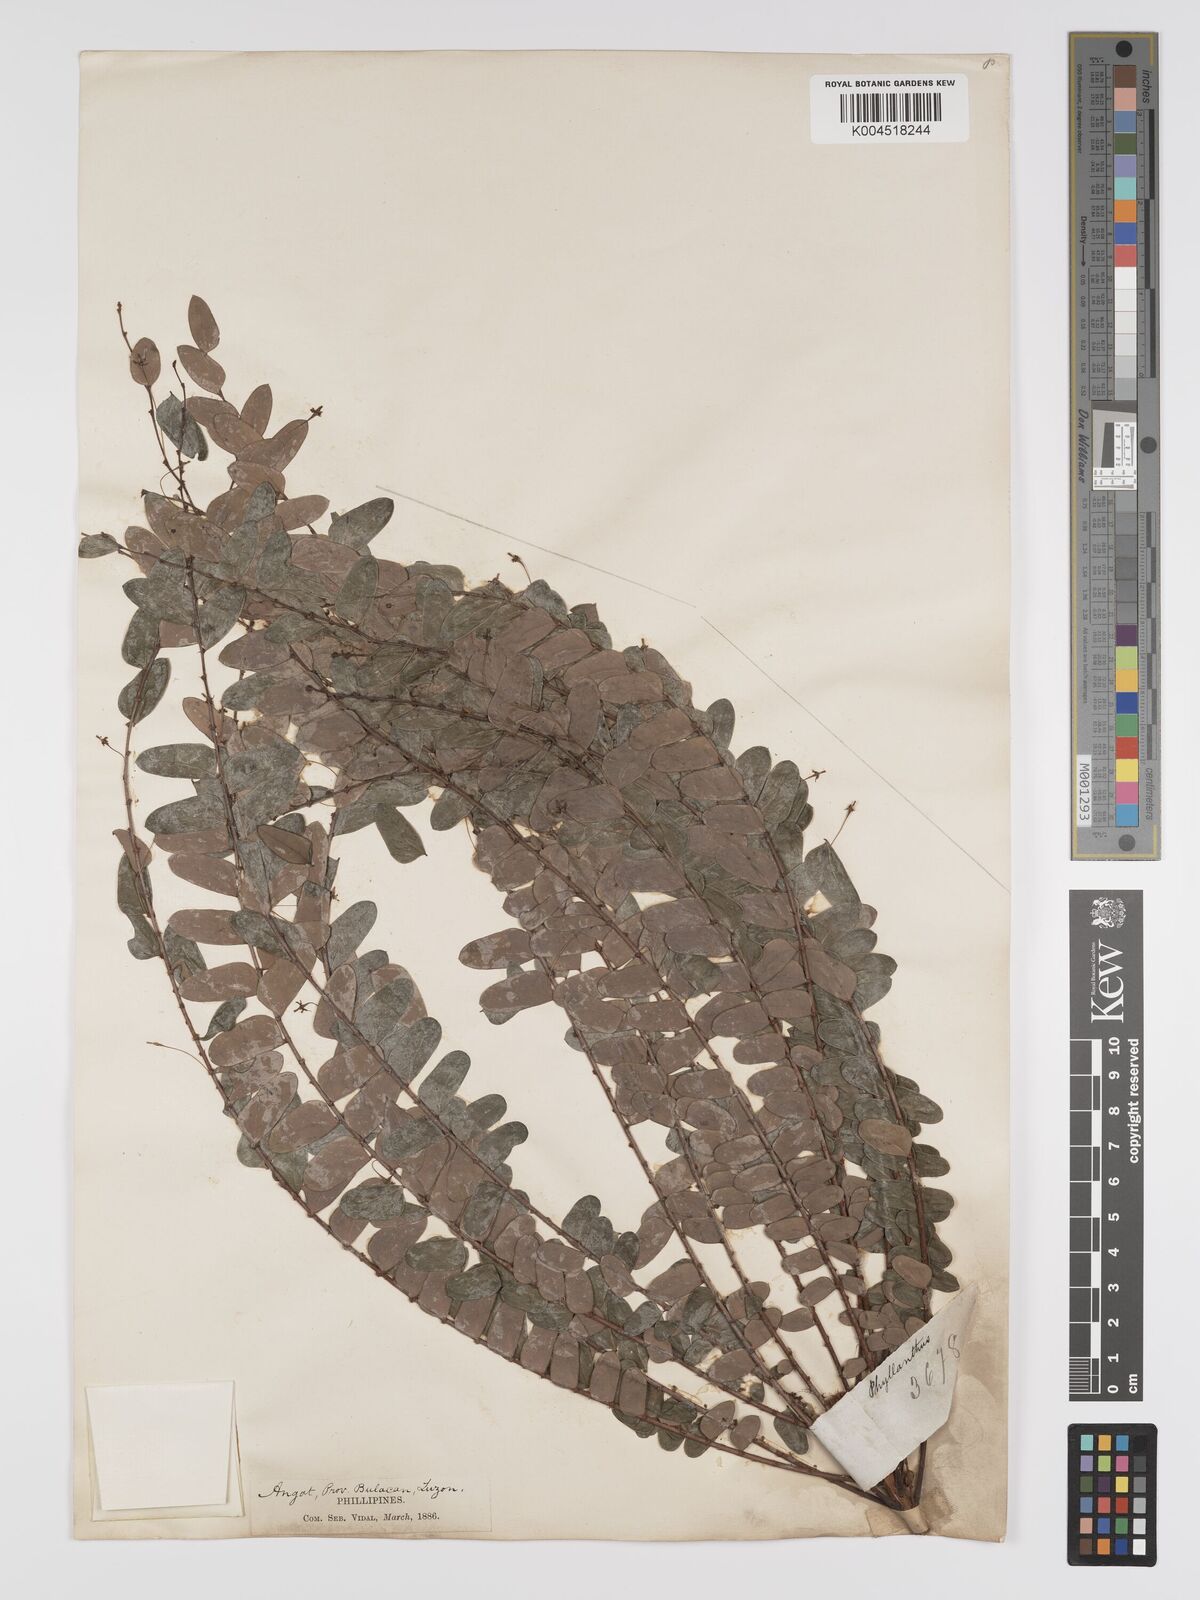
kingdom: Plantae
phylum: Tracheophyta
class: Magnoliopsida
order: Malpighiales
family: Phyllanthaceae
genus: Phyllanthus
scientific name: Phyllanthus celebicus
